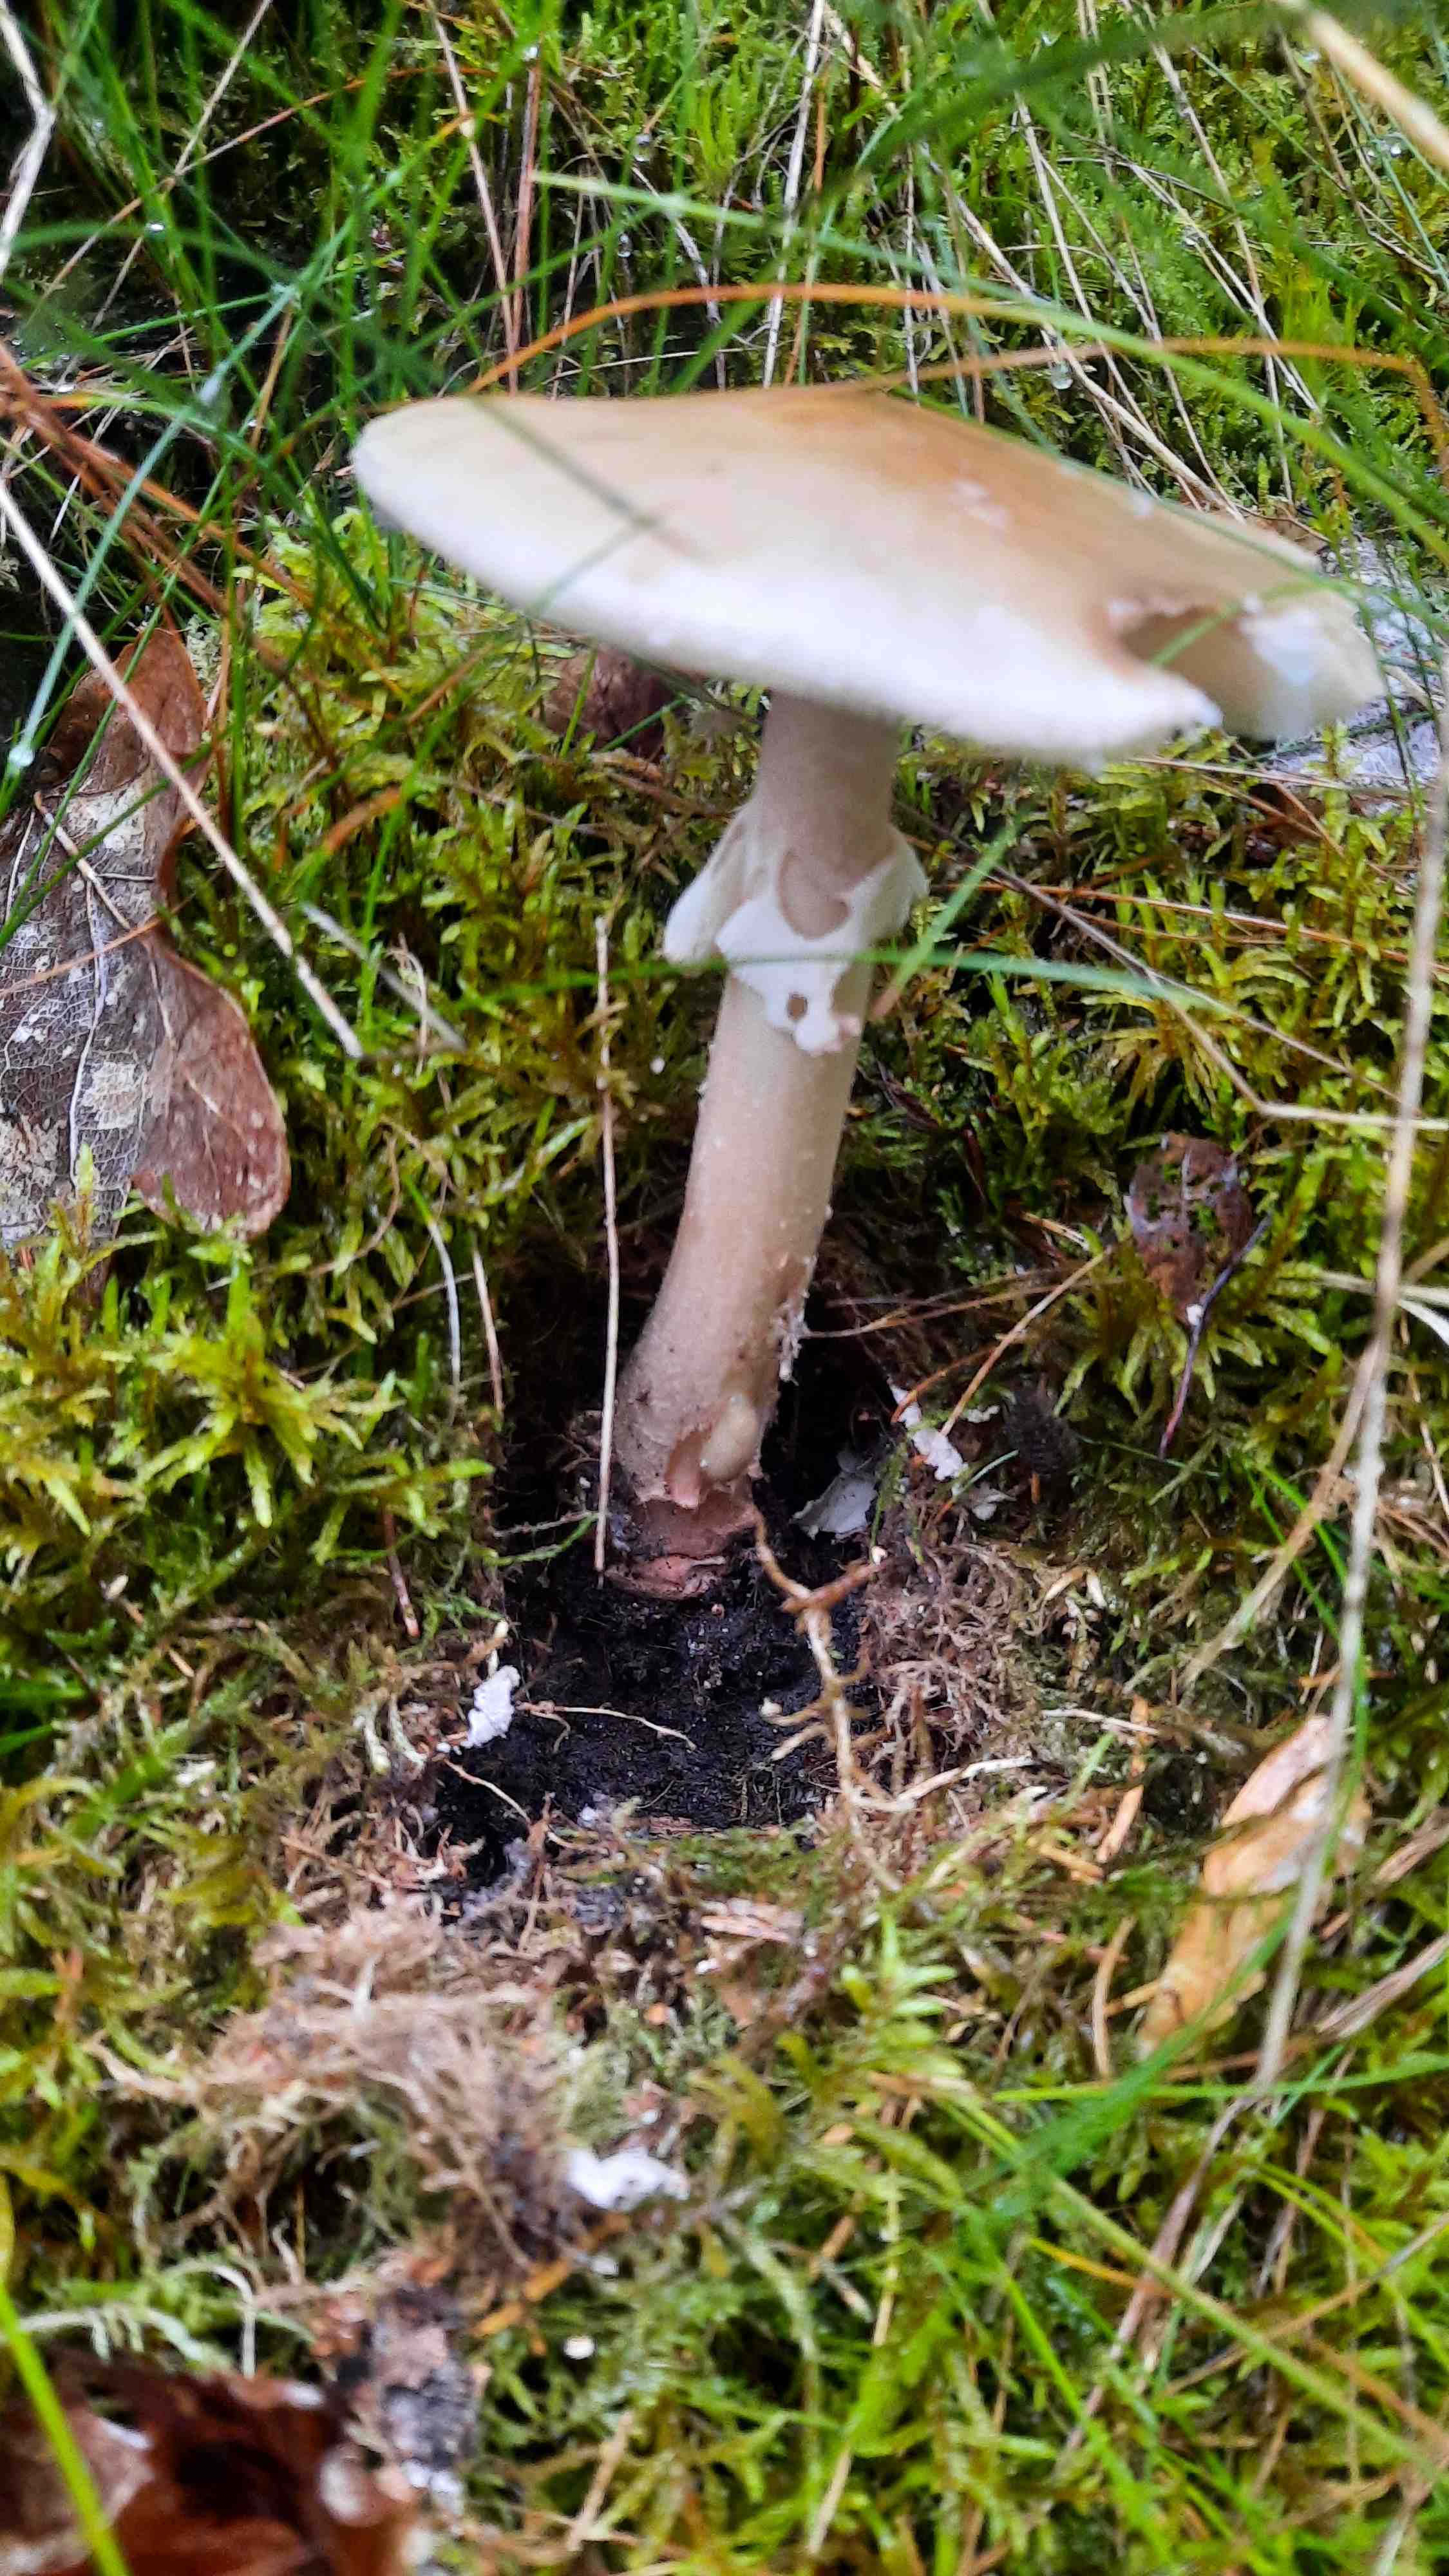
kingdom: Fungi
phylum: Basidiomycota
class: Agaricomycetes
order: Agaricales
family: Amanitaceae
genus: Amanita
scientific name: Amanita rubescens
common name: rødmende fluesvamp
